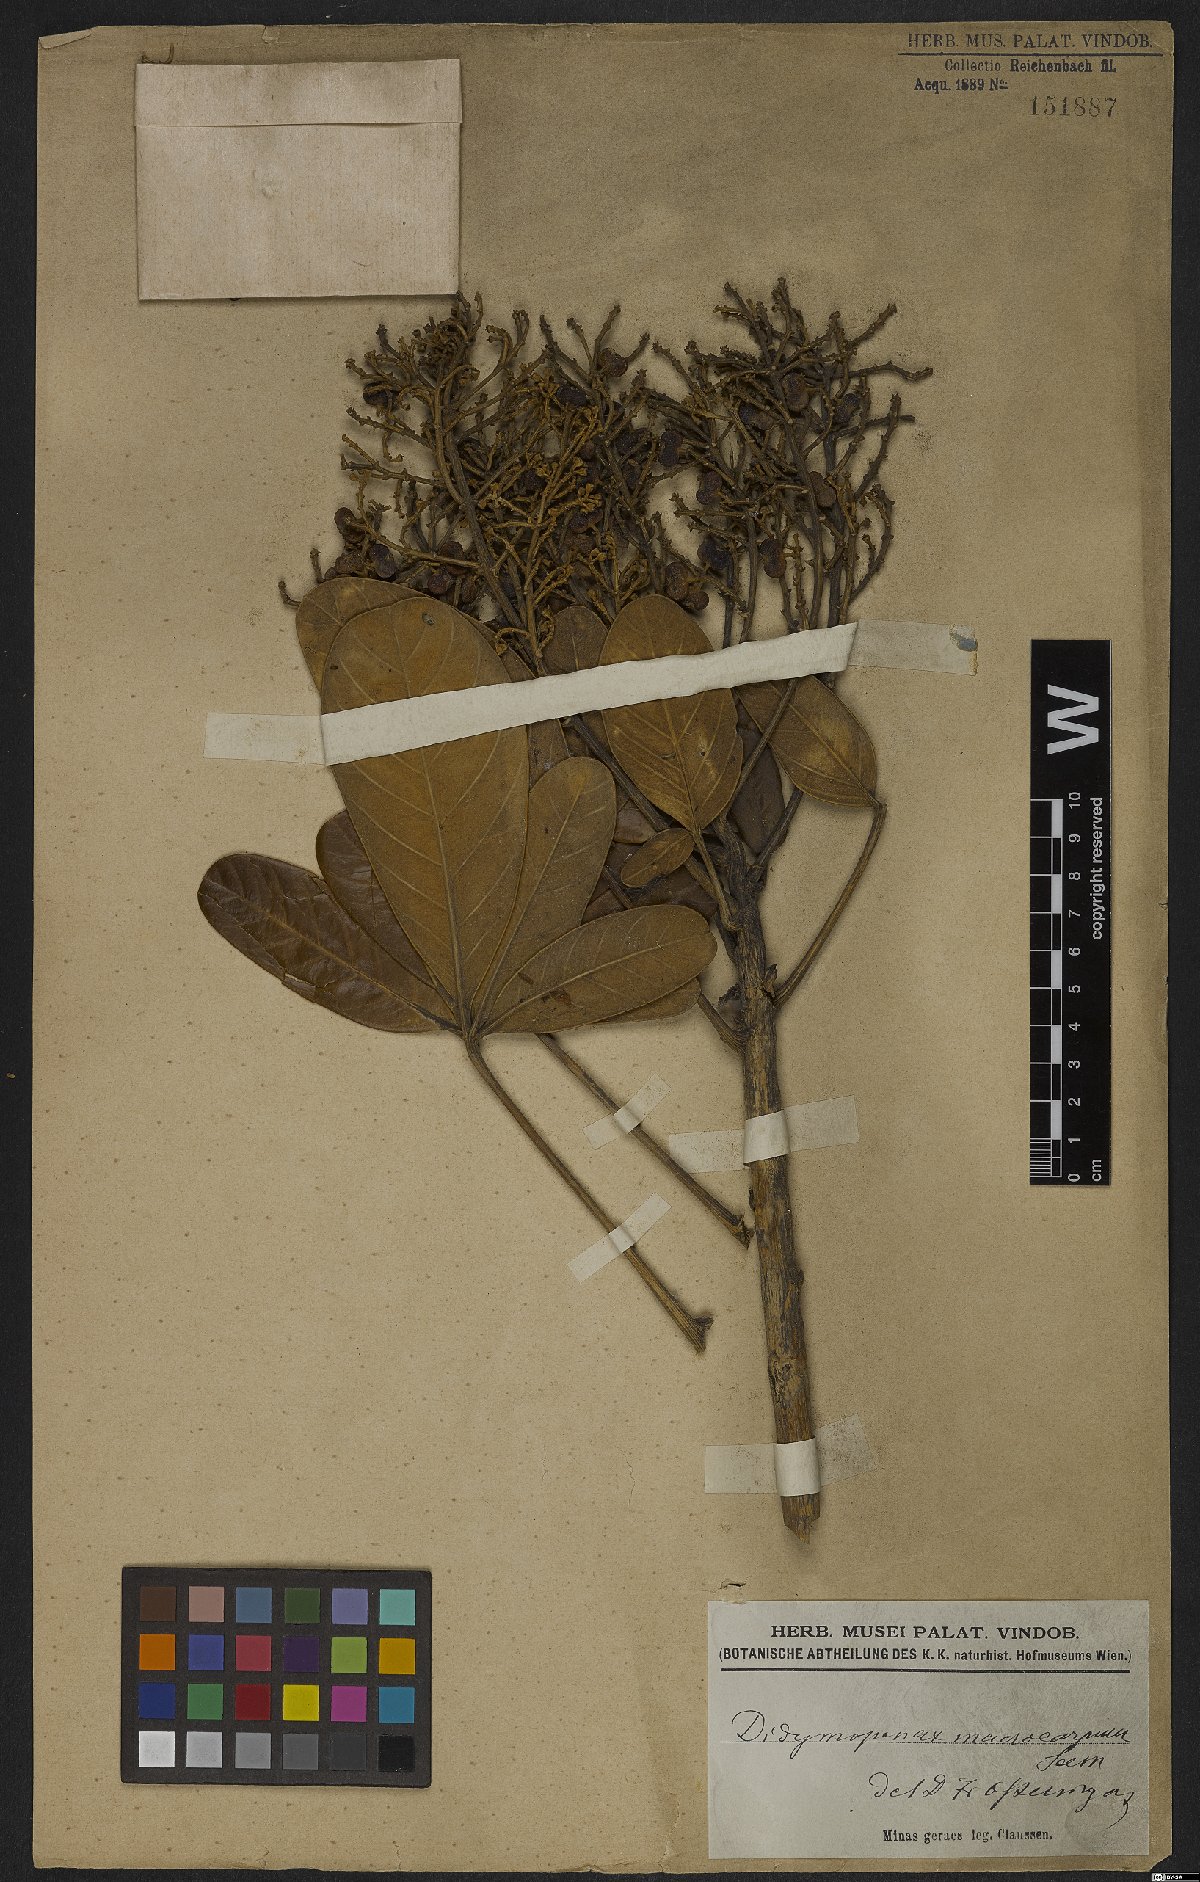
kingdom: Plantae
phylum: Tracheophyta
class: Magnoliopsida
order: Apiales
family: Araliaceae
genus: Didymopanax
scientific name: Didymopanax macrocarpus
